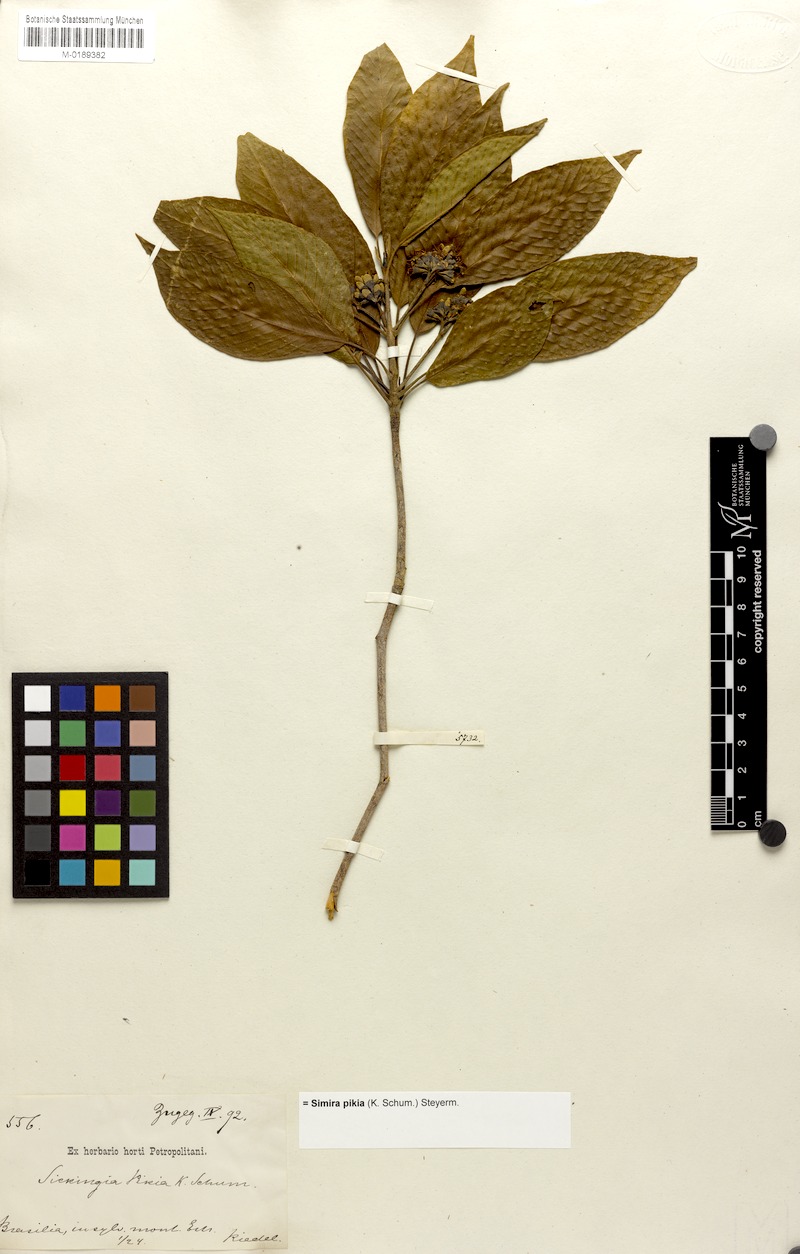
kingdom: Plantae
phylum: Tracheophyta
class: Magnoliopsida
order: Gentianales
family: Rubiaceae
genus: Simira
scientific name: Simira pikia
